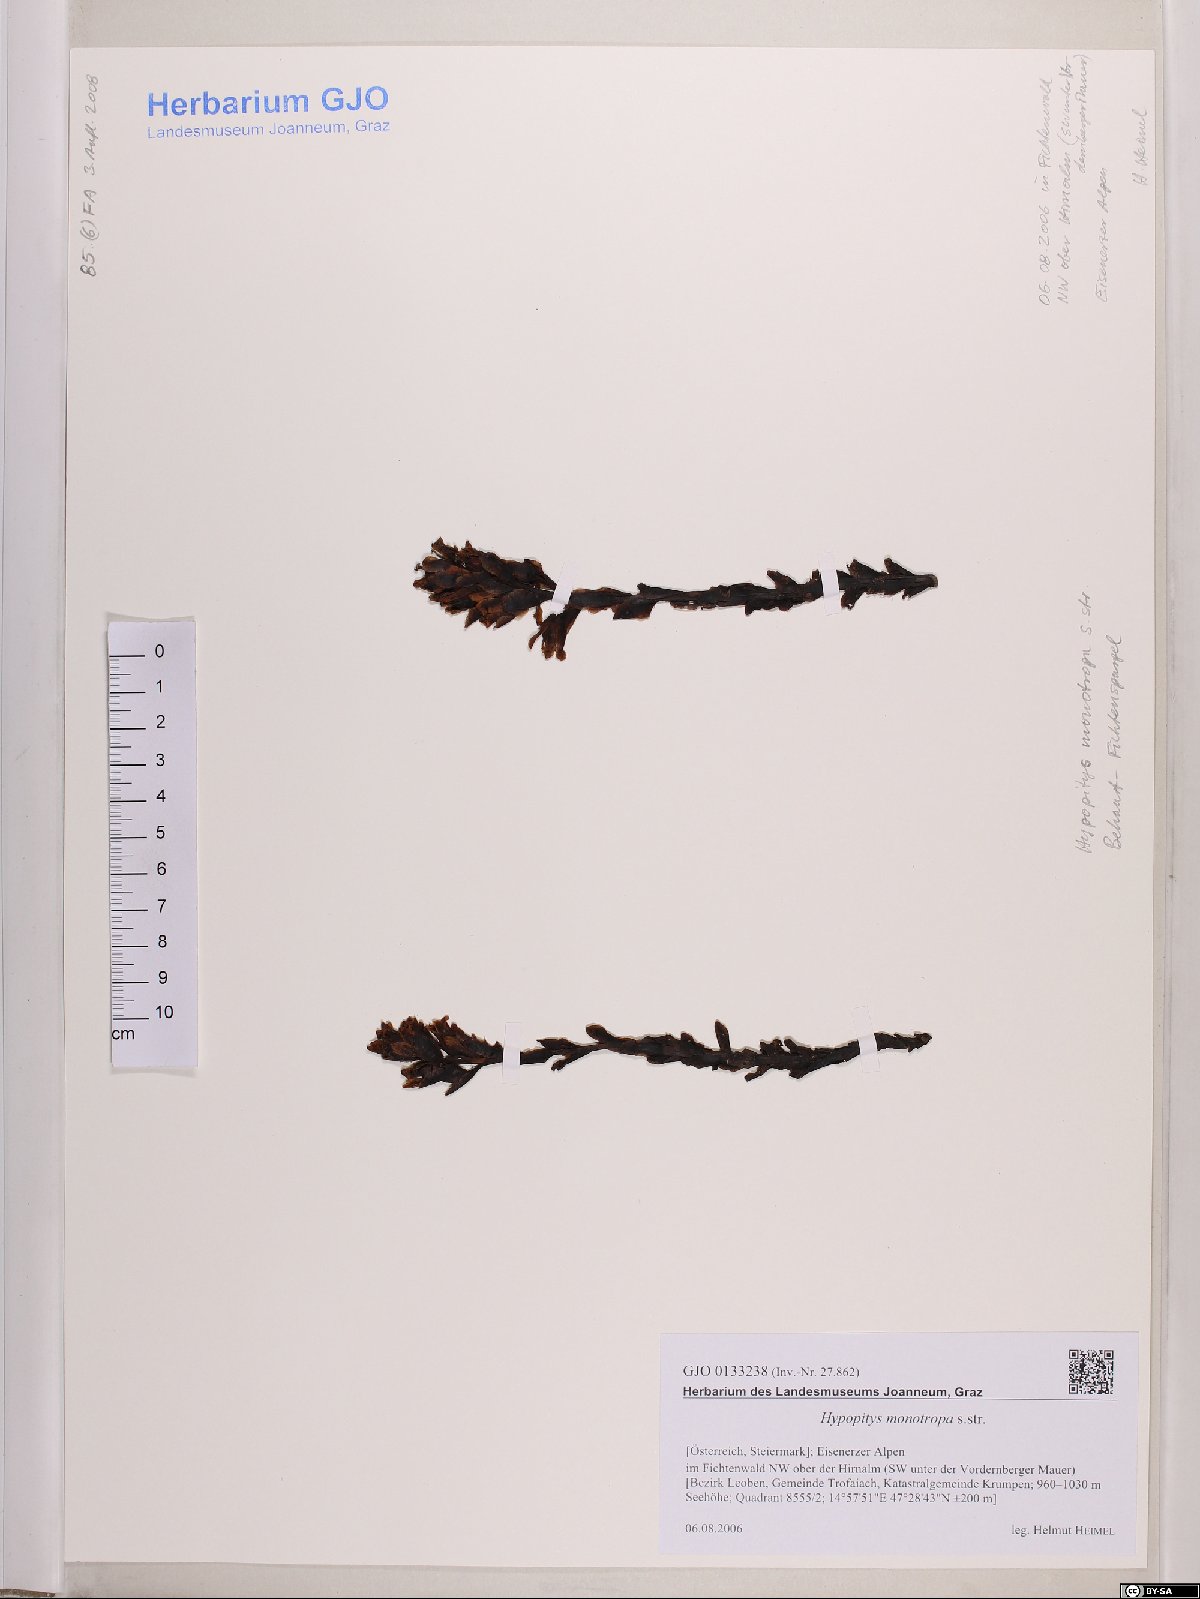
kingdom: Plantae
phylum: Tracheophyta
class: Magnoliopsida
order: Ericales
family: Ericaceae
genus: Hypopitys
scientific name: Hypopitys monotropa
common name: Yellow bird's-nest
